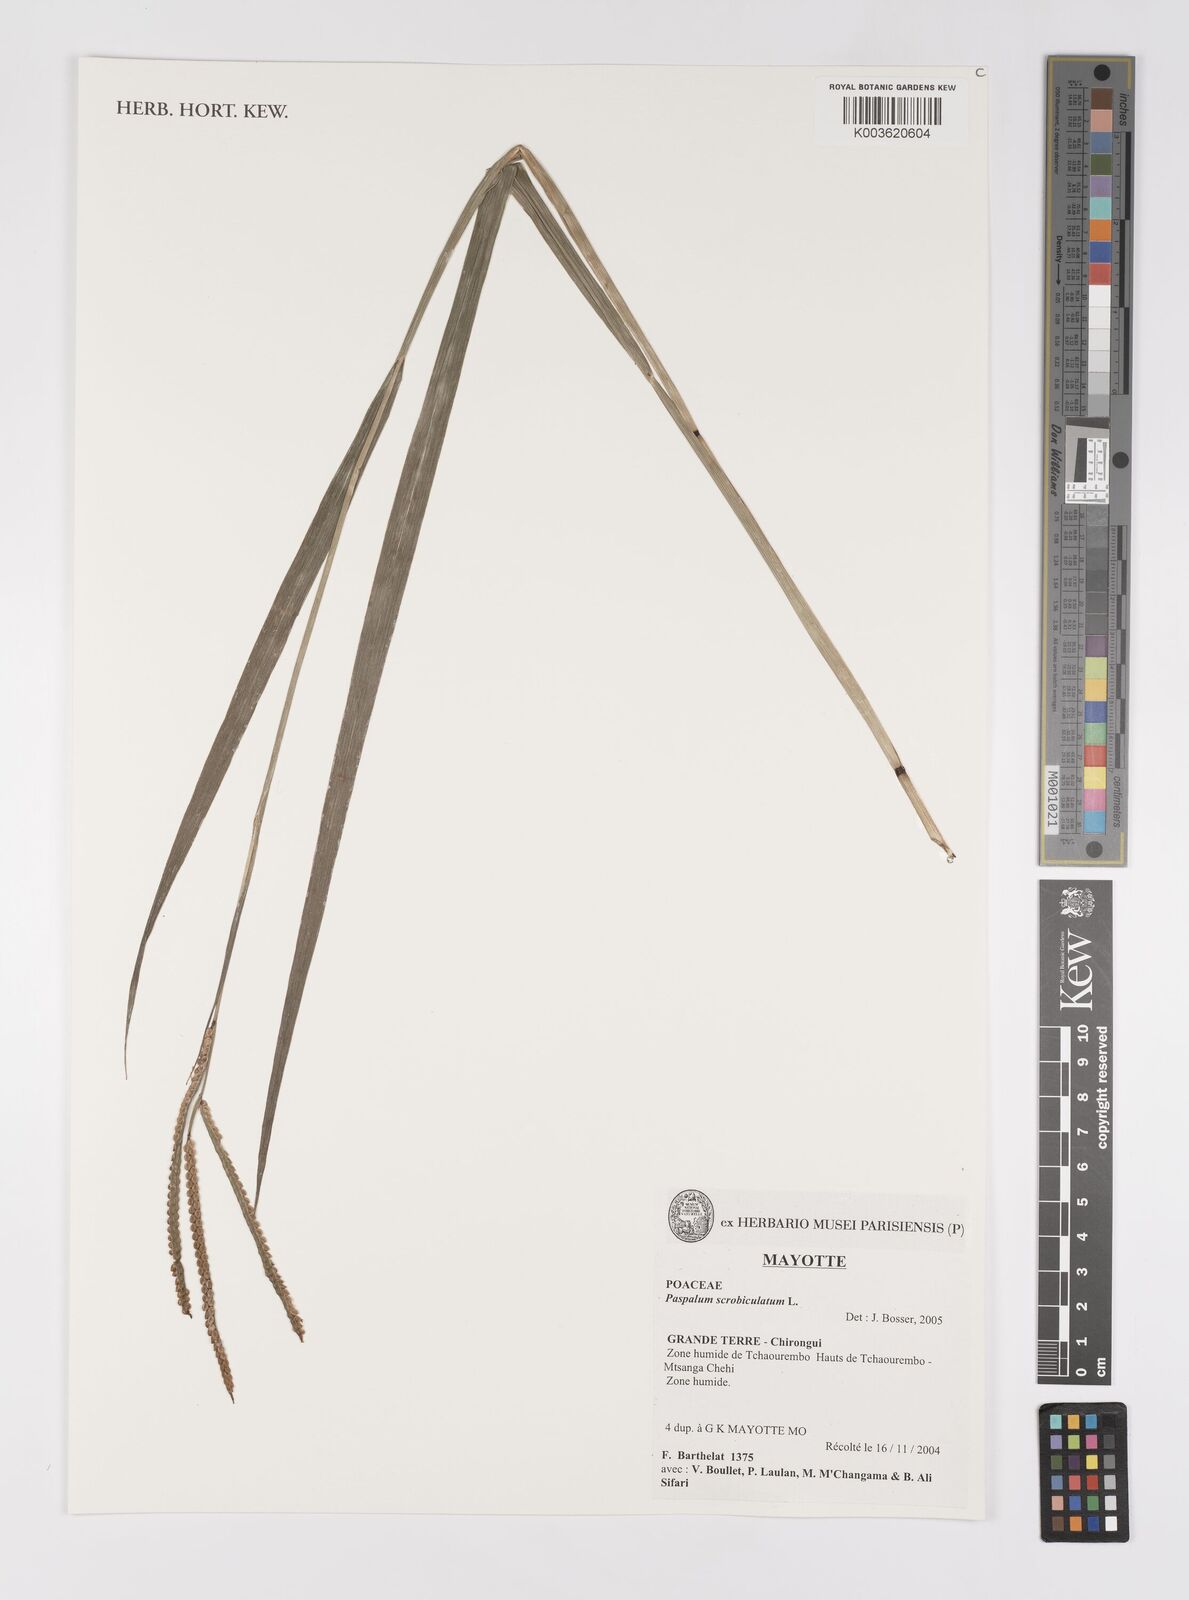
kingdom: Plantae
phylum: Tracheophyta
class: Liliopsida
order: Poales
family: Poaceae
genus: Paspalum
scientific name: Paspalum scrobiculatum
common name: Kodo millet
